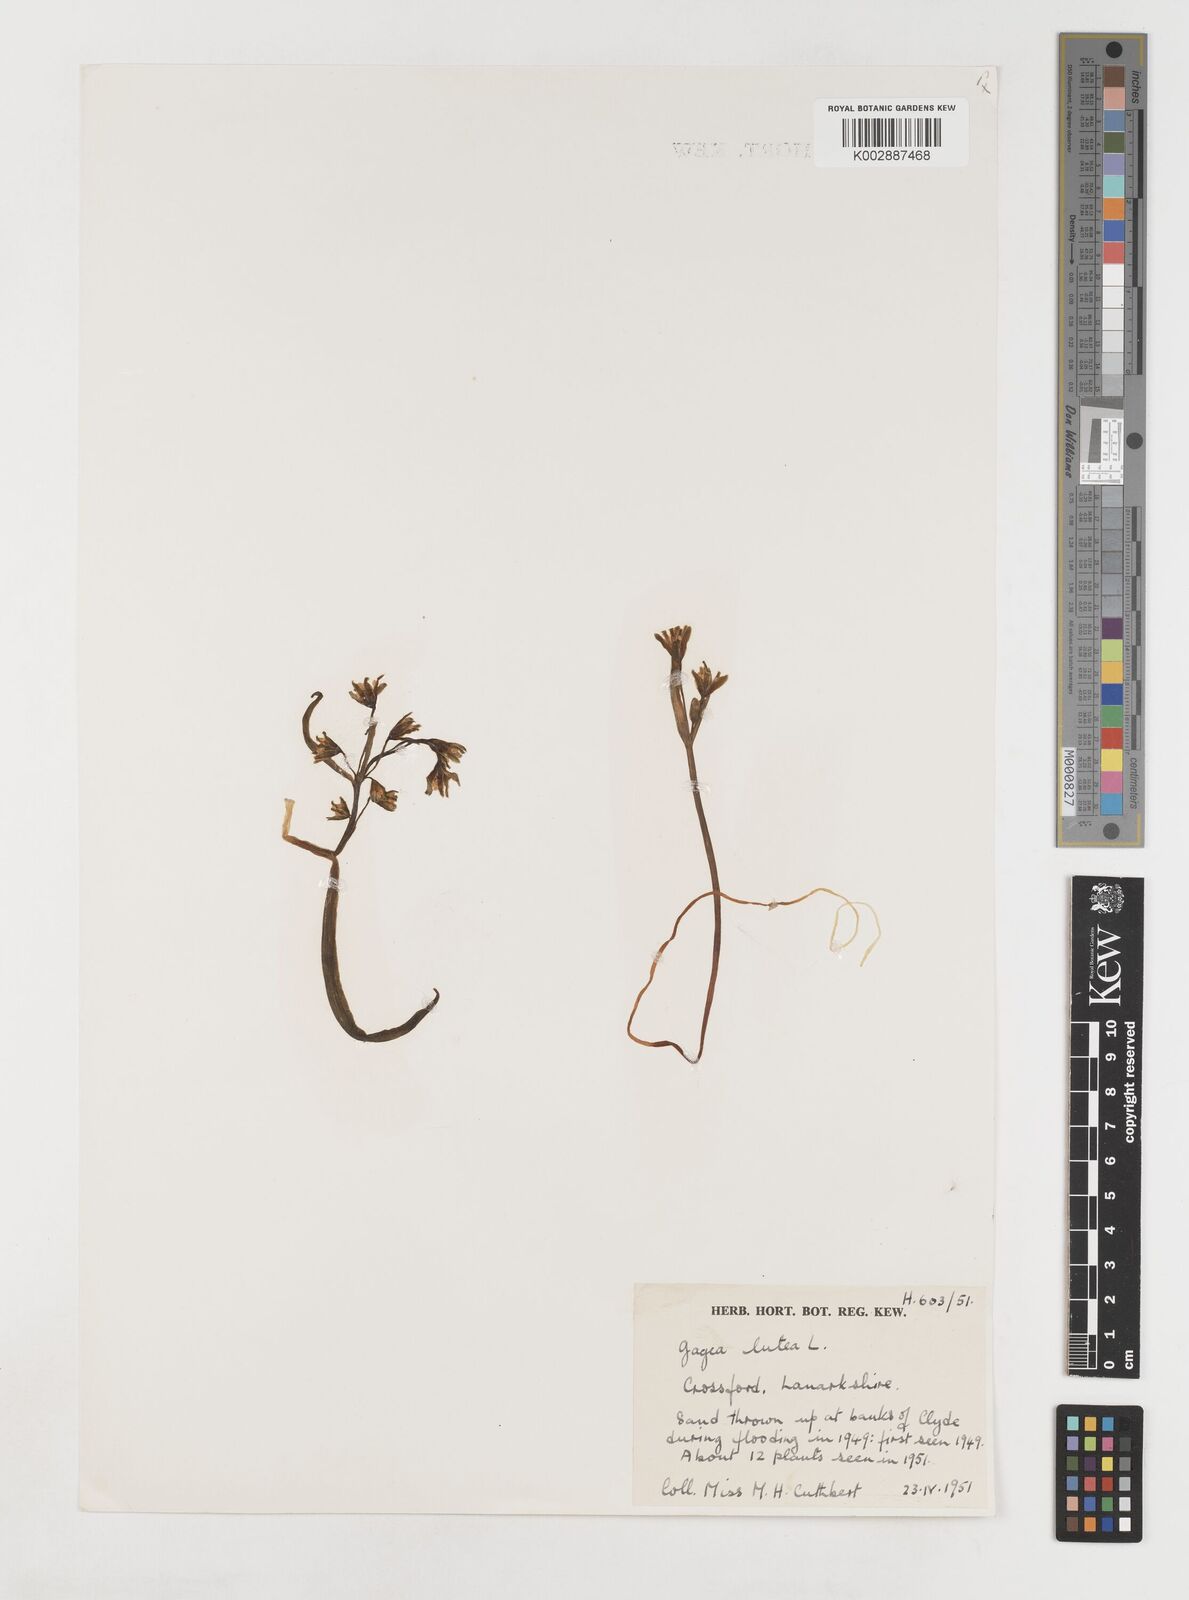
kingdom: Plantae
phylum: Tracheophyta
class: Liliopsida
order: Liliales
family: Liliaceae
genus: Gagea
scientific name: Gagea lutea
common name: Yellow star-of-bethlehem
